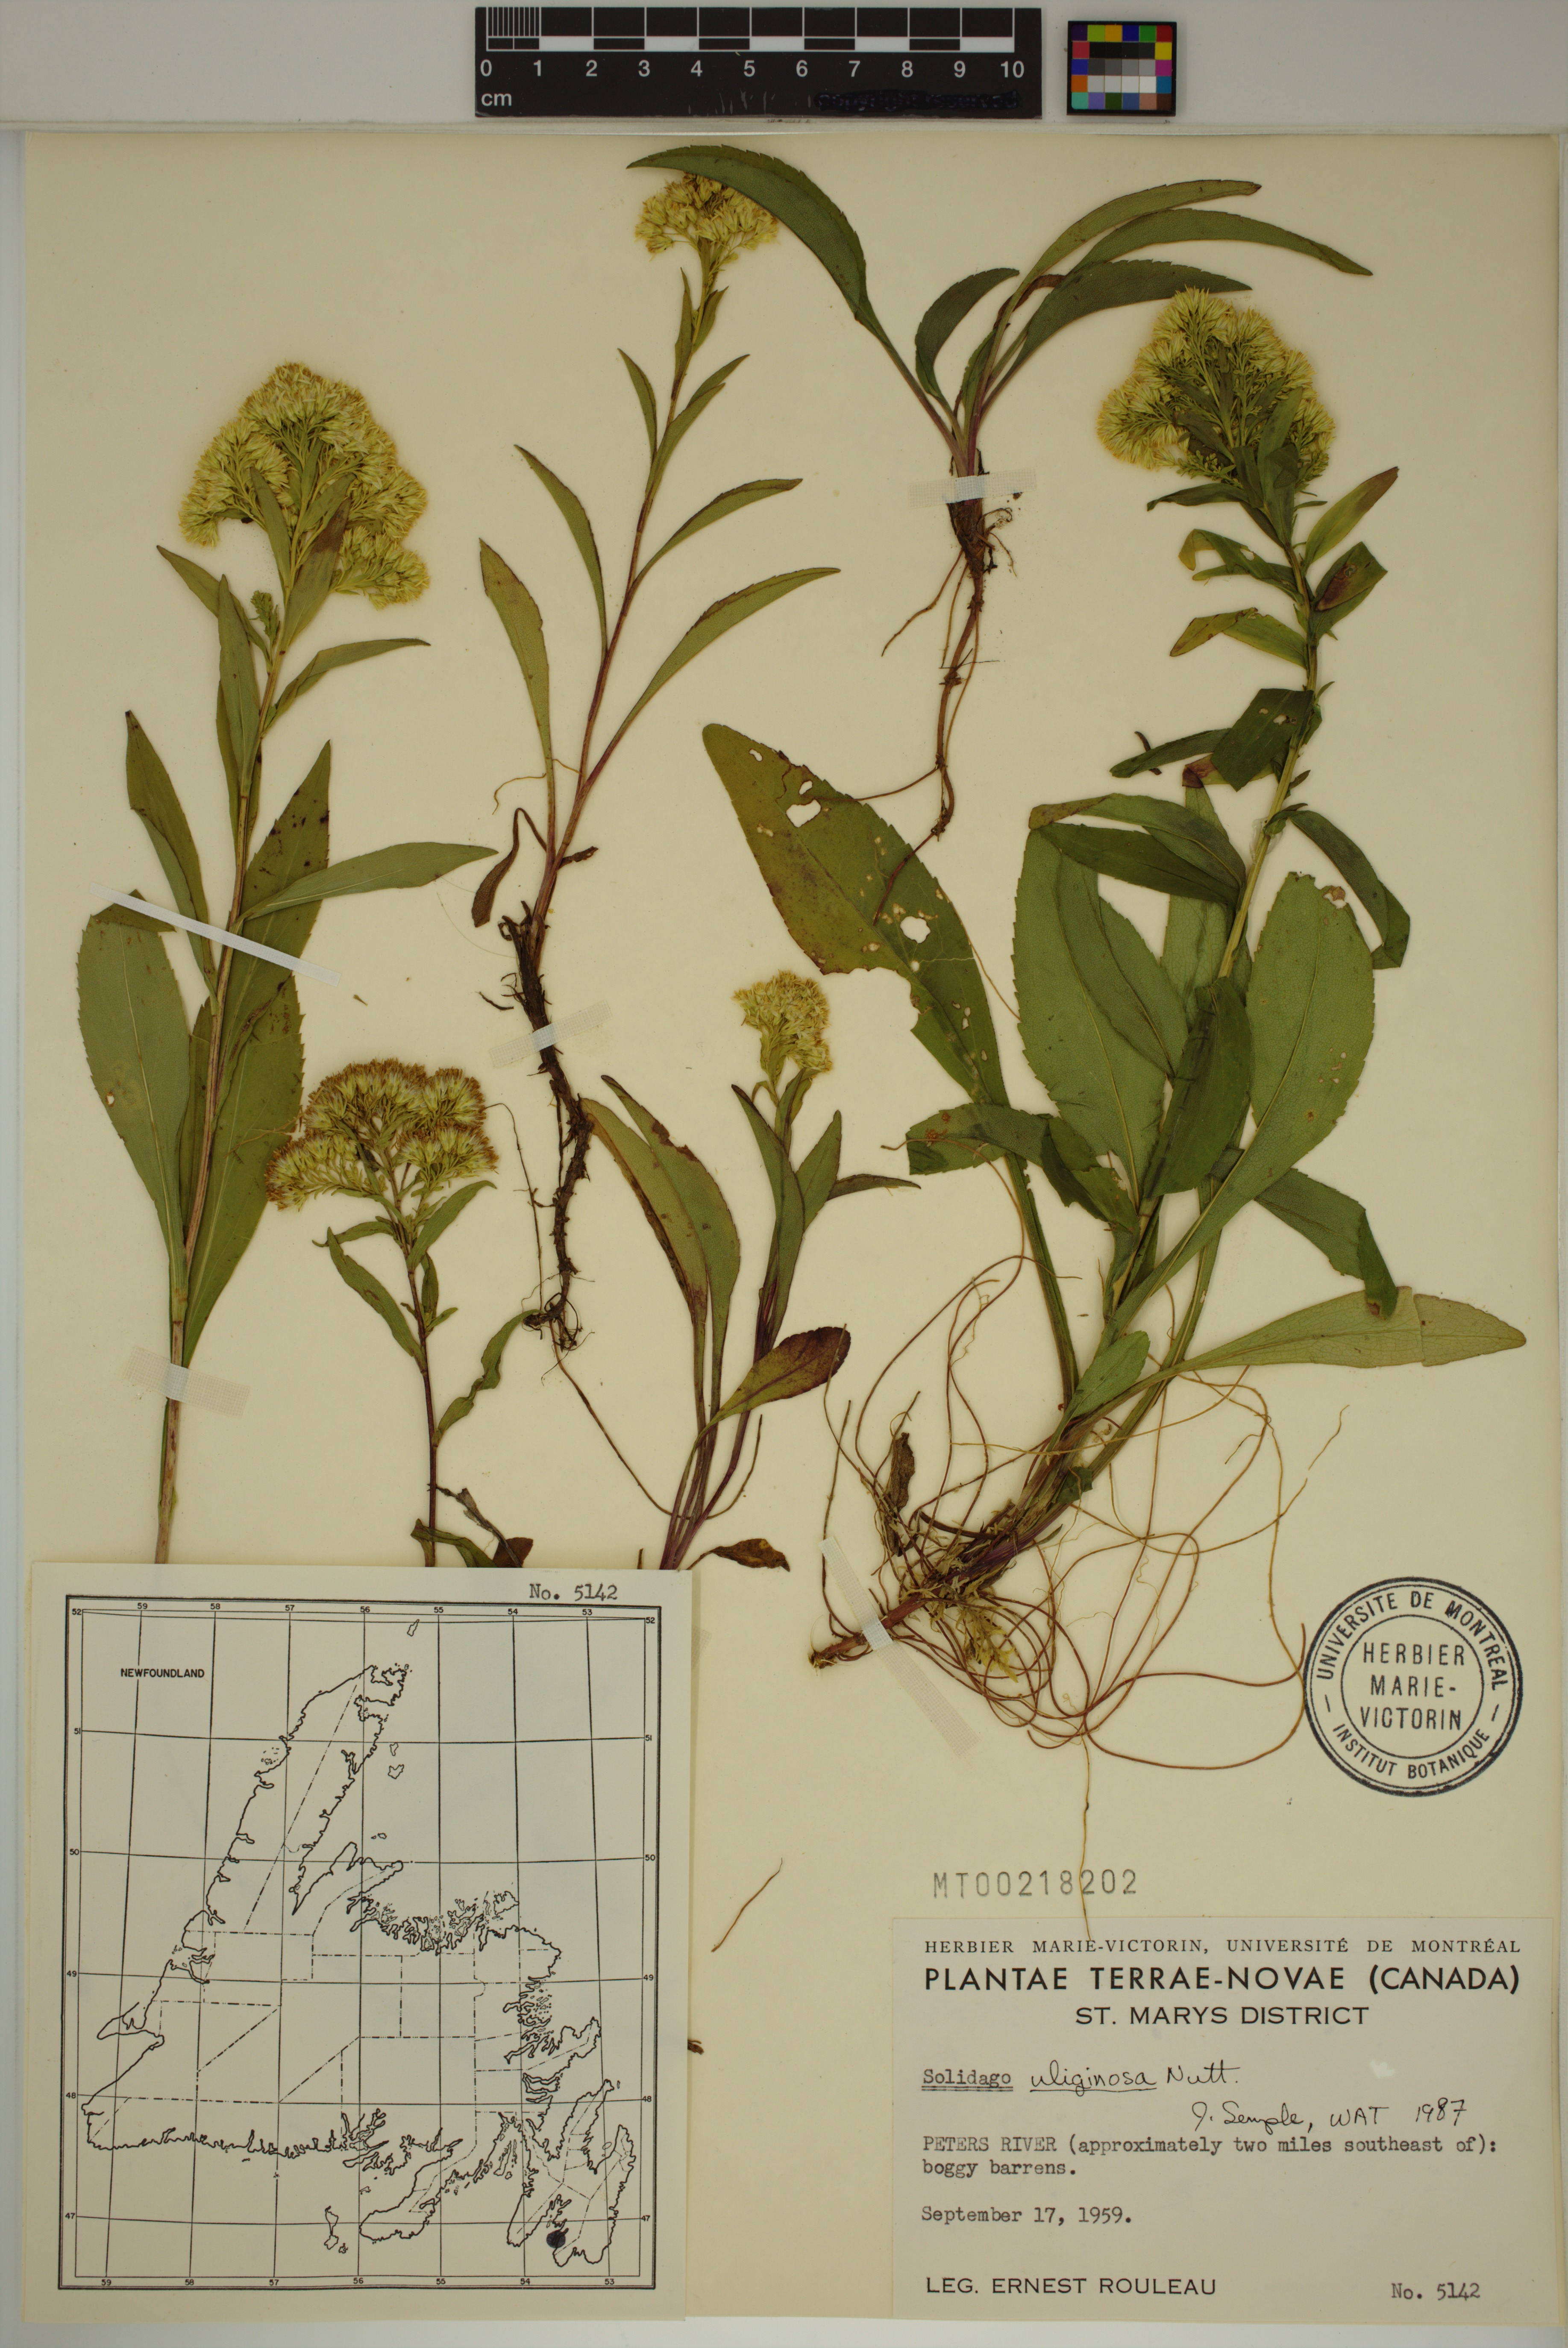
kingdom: Plantae
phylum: Tracheophyta
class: Magnoliopsida
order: Asterales
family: Asteraceae
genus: Solidago
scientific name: Solidago uliginosa
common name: Bog goldenrod
